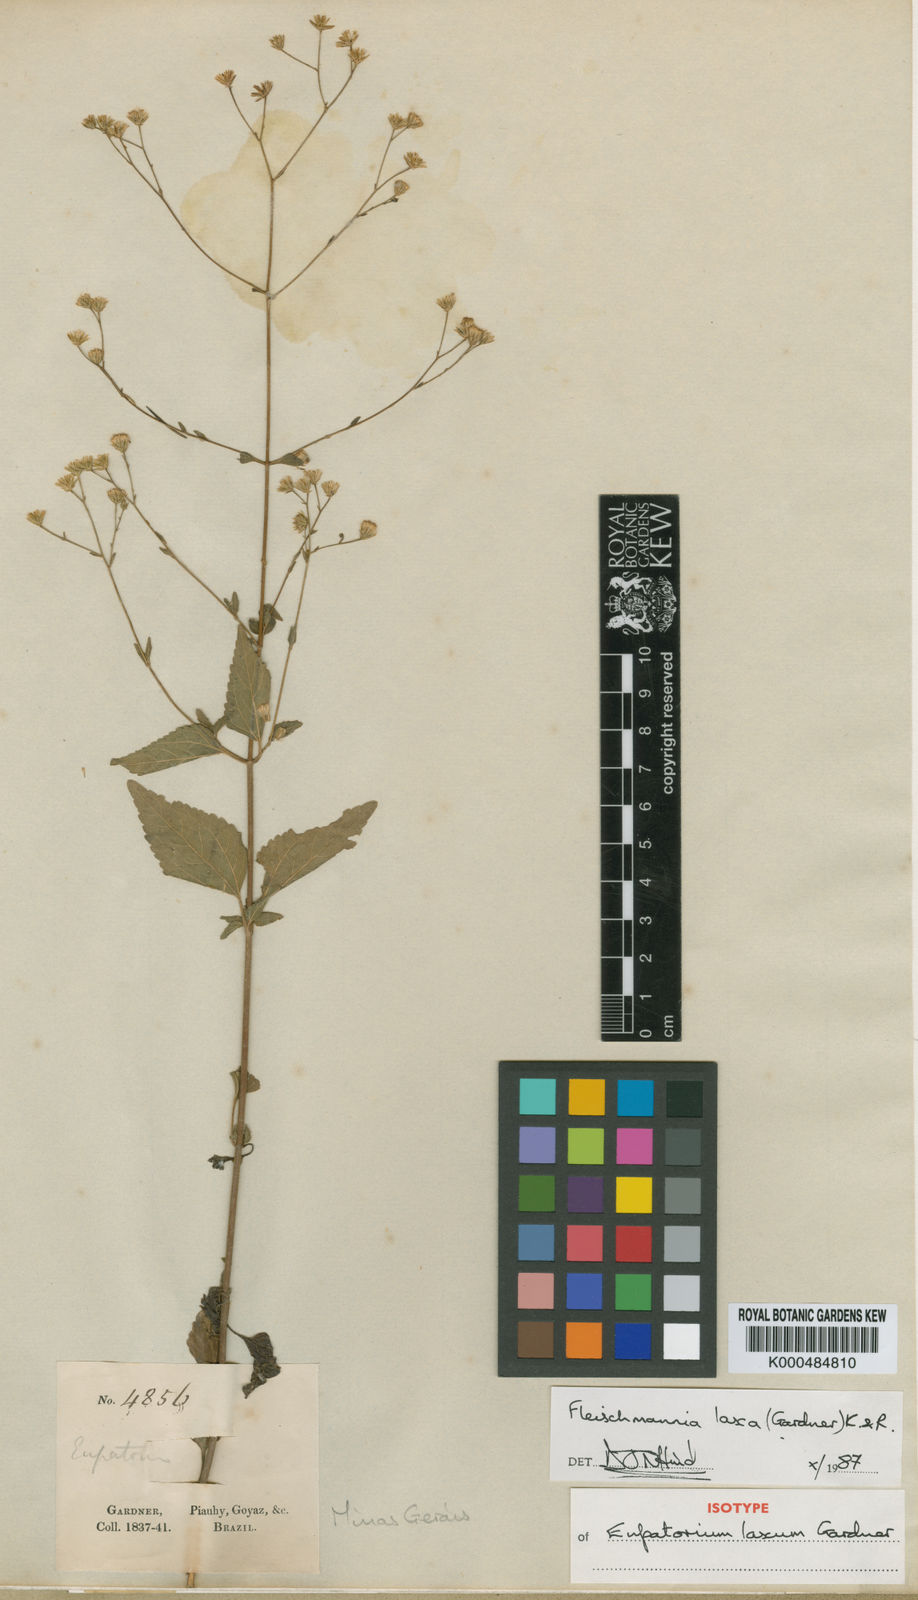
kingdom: Plantae
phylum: Tracheophyta
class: Magnoliopsida
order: Asterales
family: Asteraceae
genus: Fleischmannia
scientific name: Fleischmannia laxa
